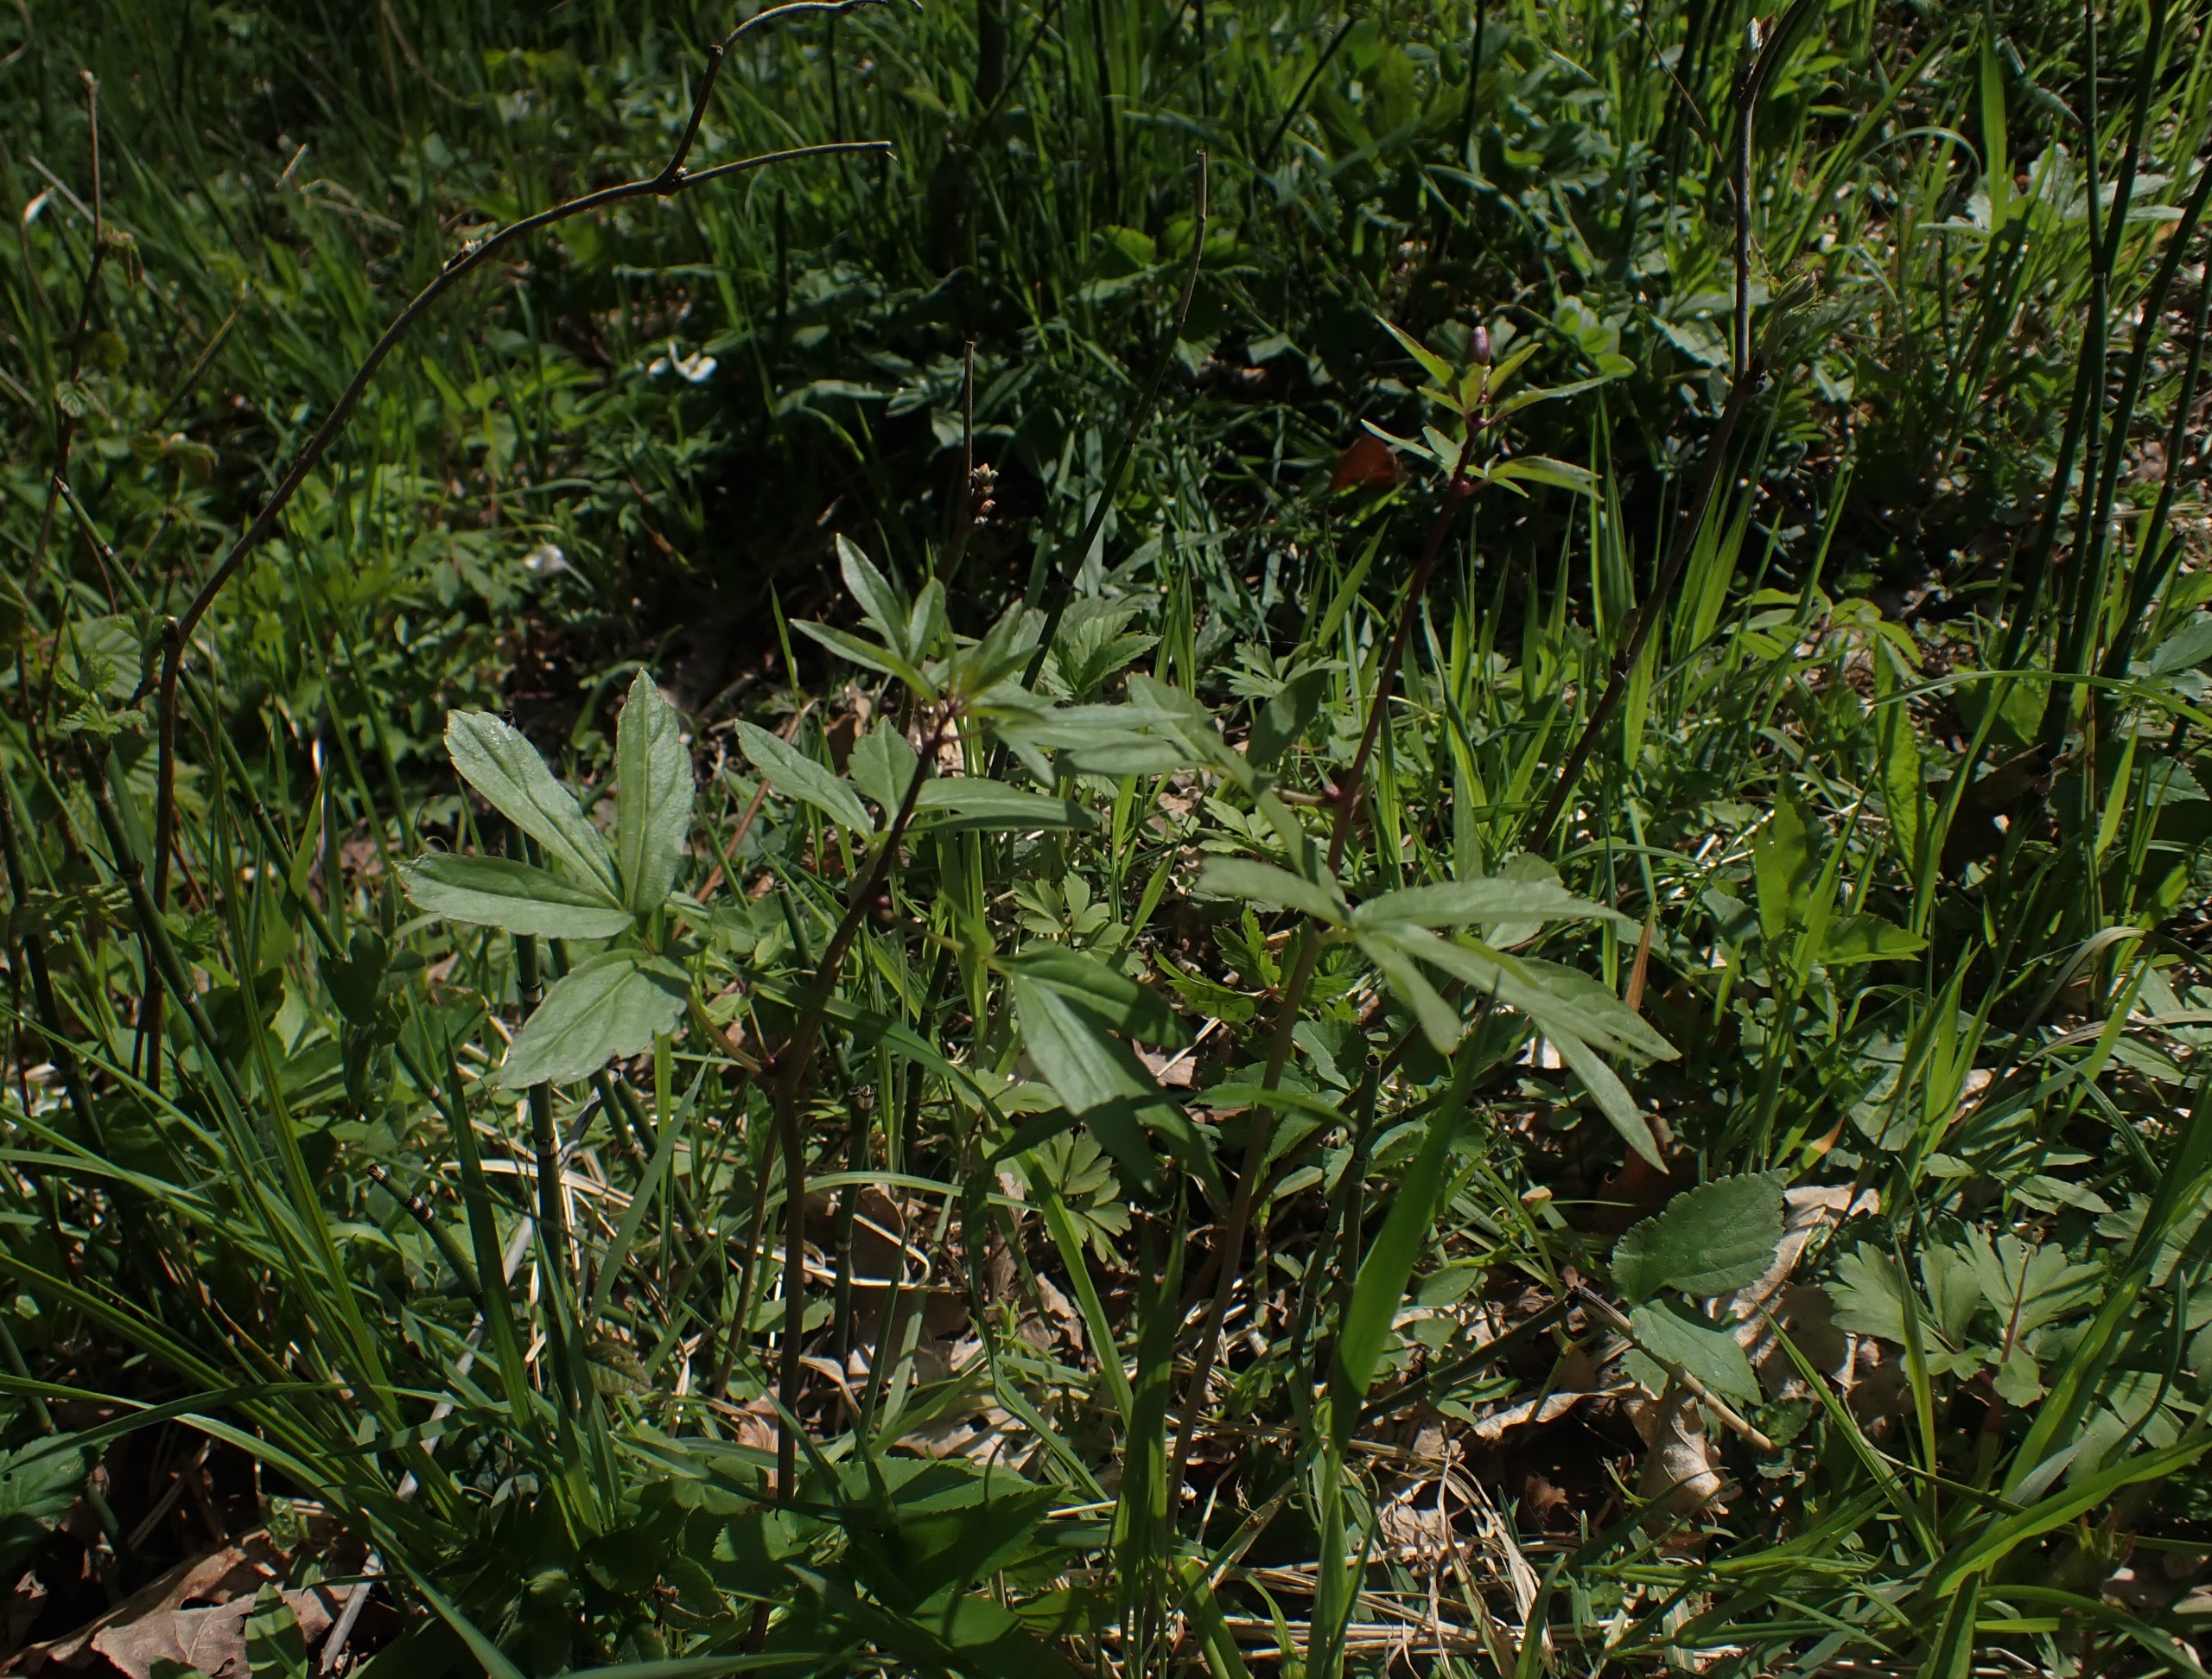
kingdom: Plantae
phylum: Tracheophyta
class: Magnoliopsida
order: Brassicales
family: Brassicaceae
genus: Cardamine
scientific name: Cardamine bulbifera
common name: Tandrod
